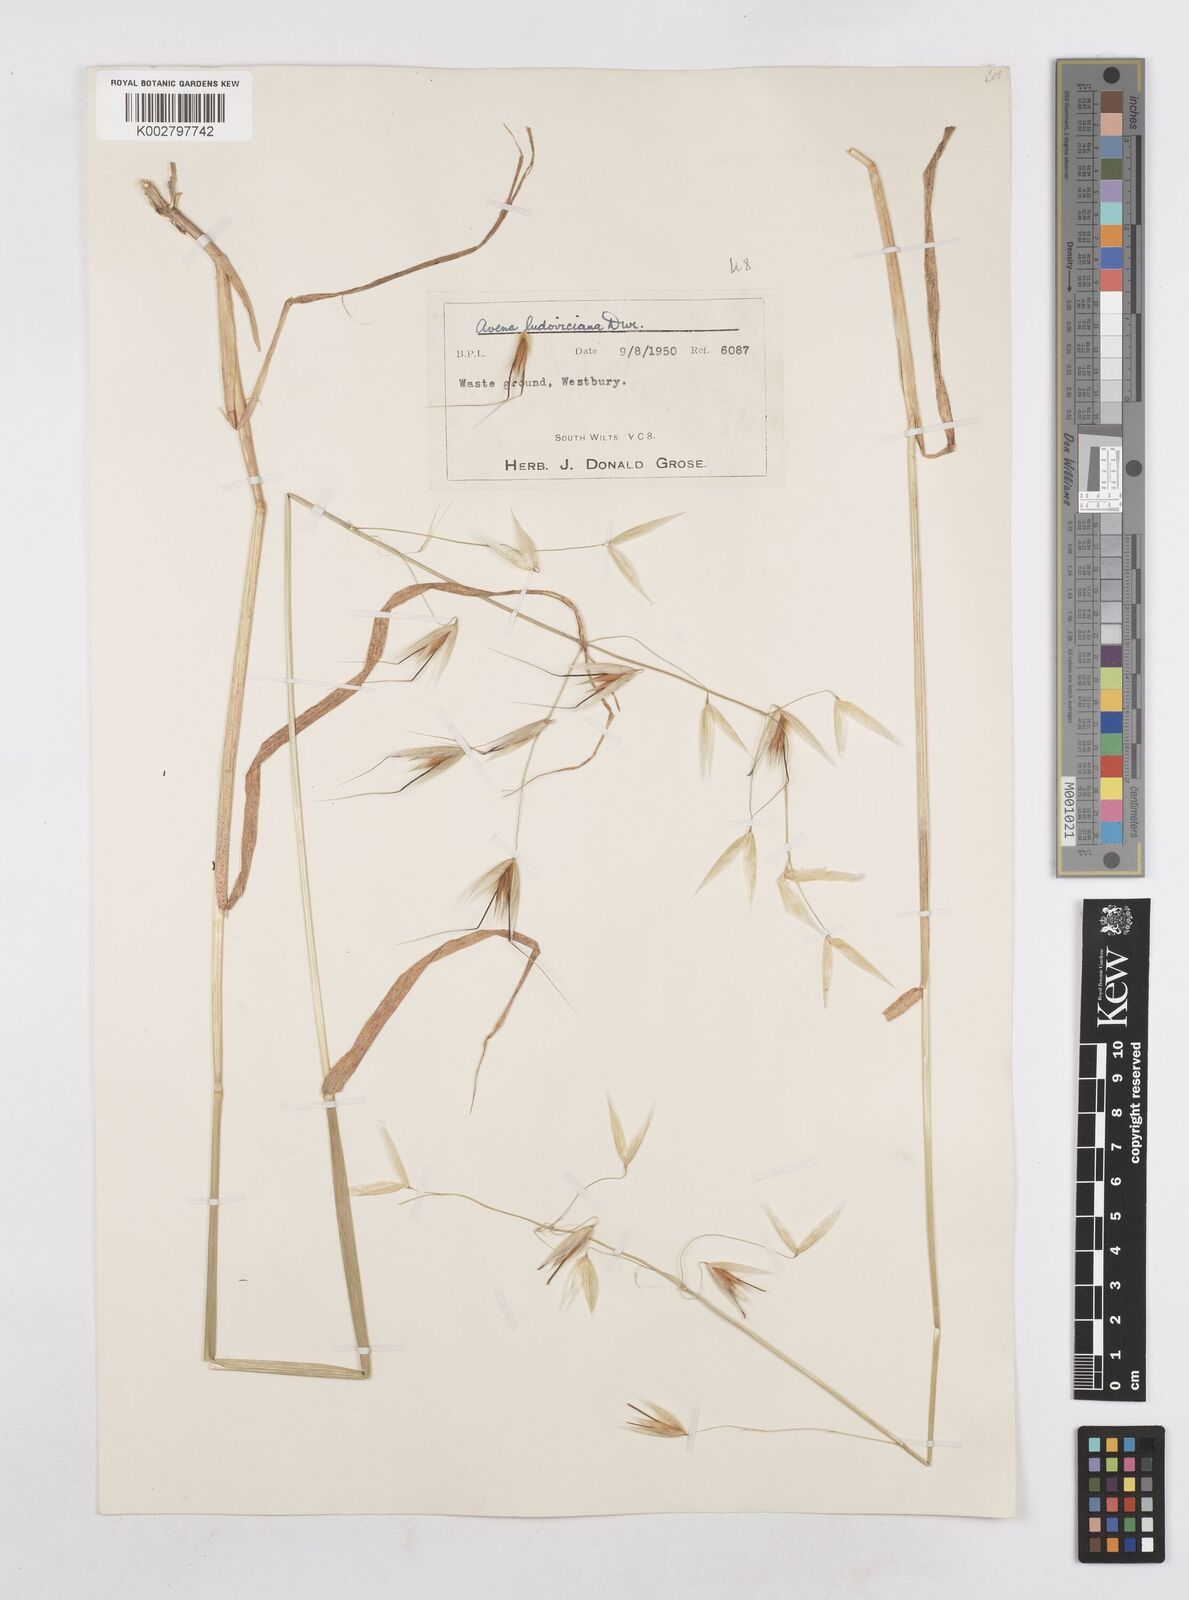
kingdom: Plantae
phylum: Tracheophyta
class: Liliopsida
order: Poales
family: Poaceae
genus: Avena
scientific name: Avena sterilis
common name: Animated oat
